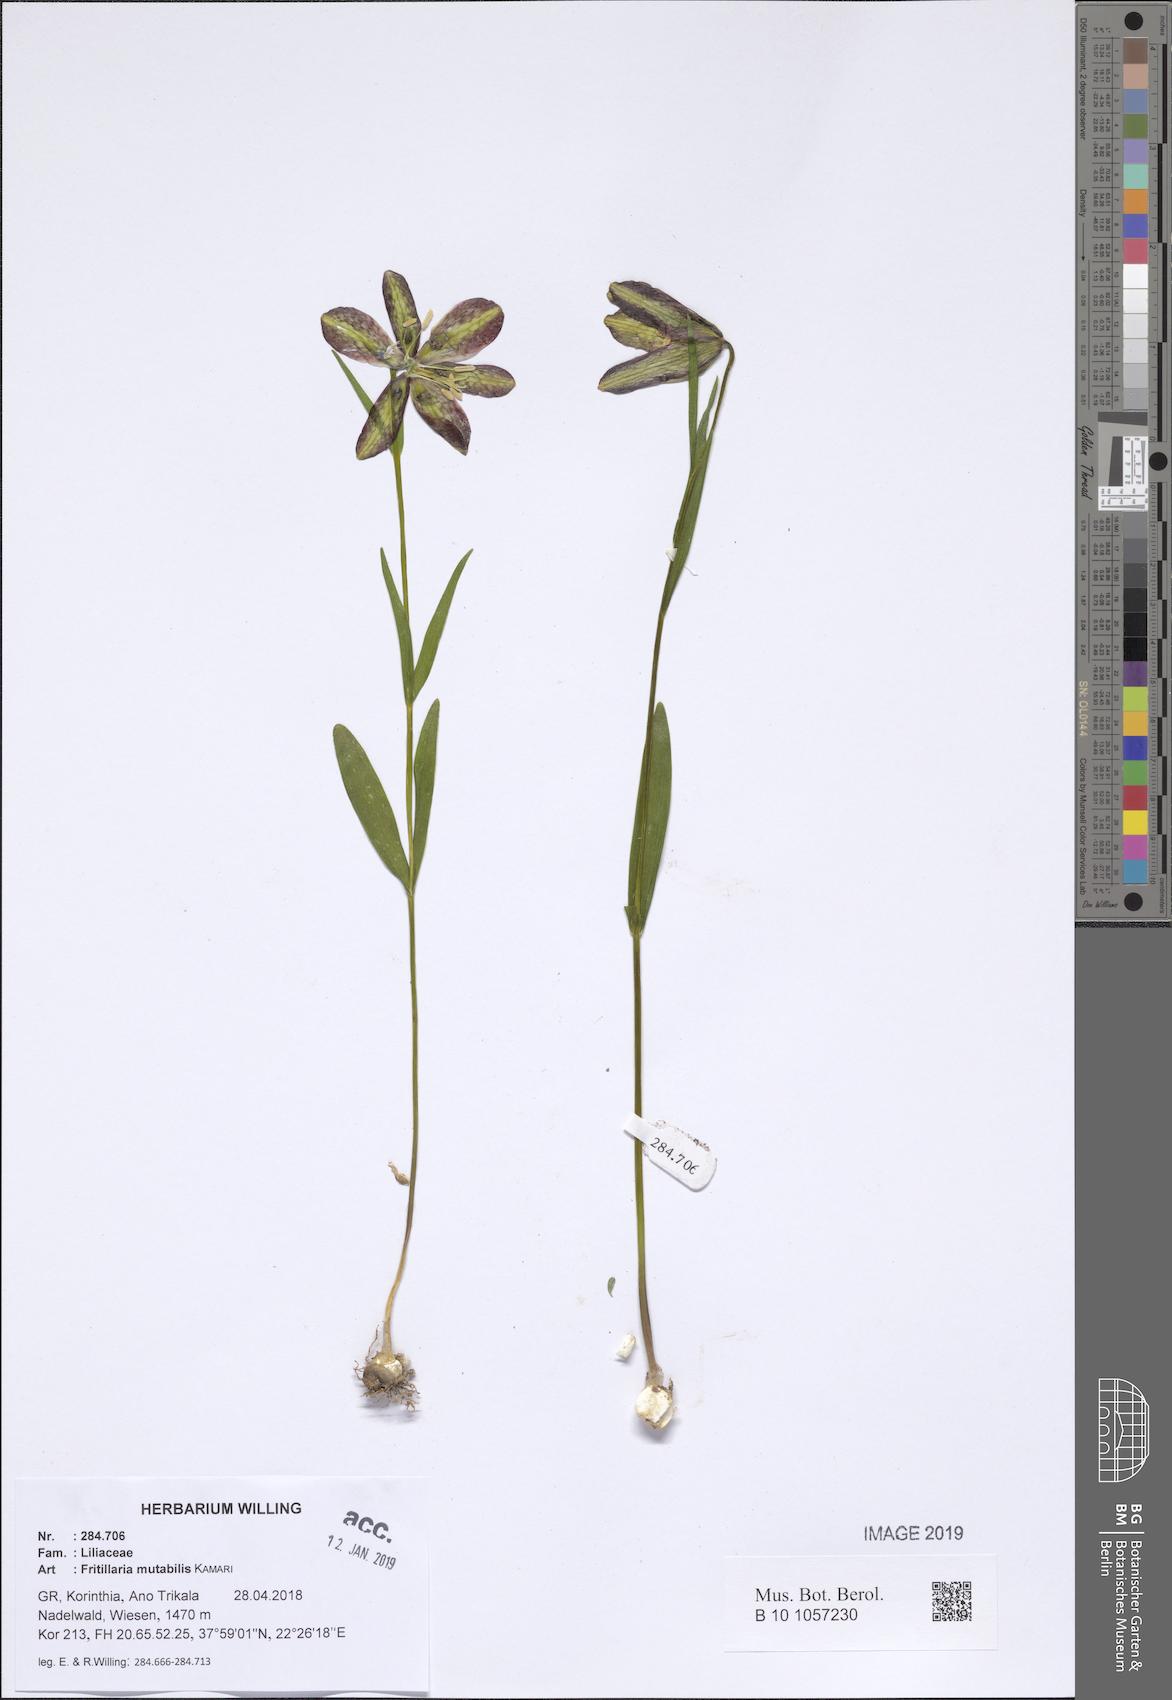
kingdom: Plantae
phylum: Tracheophyta
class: Liliopsida
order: Liliales
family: Liliaceae
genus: Fritillaria
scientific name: Fritillaria mutabilis
